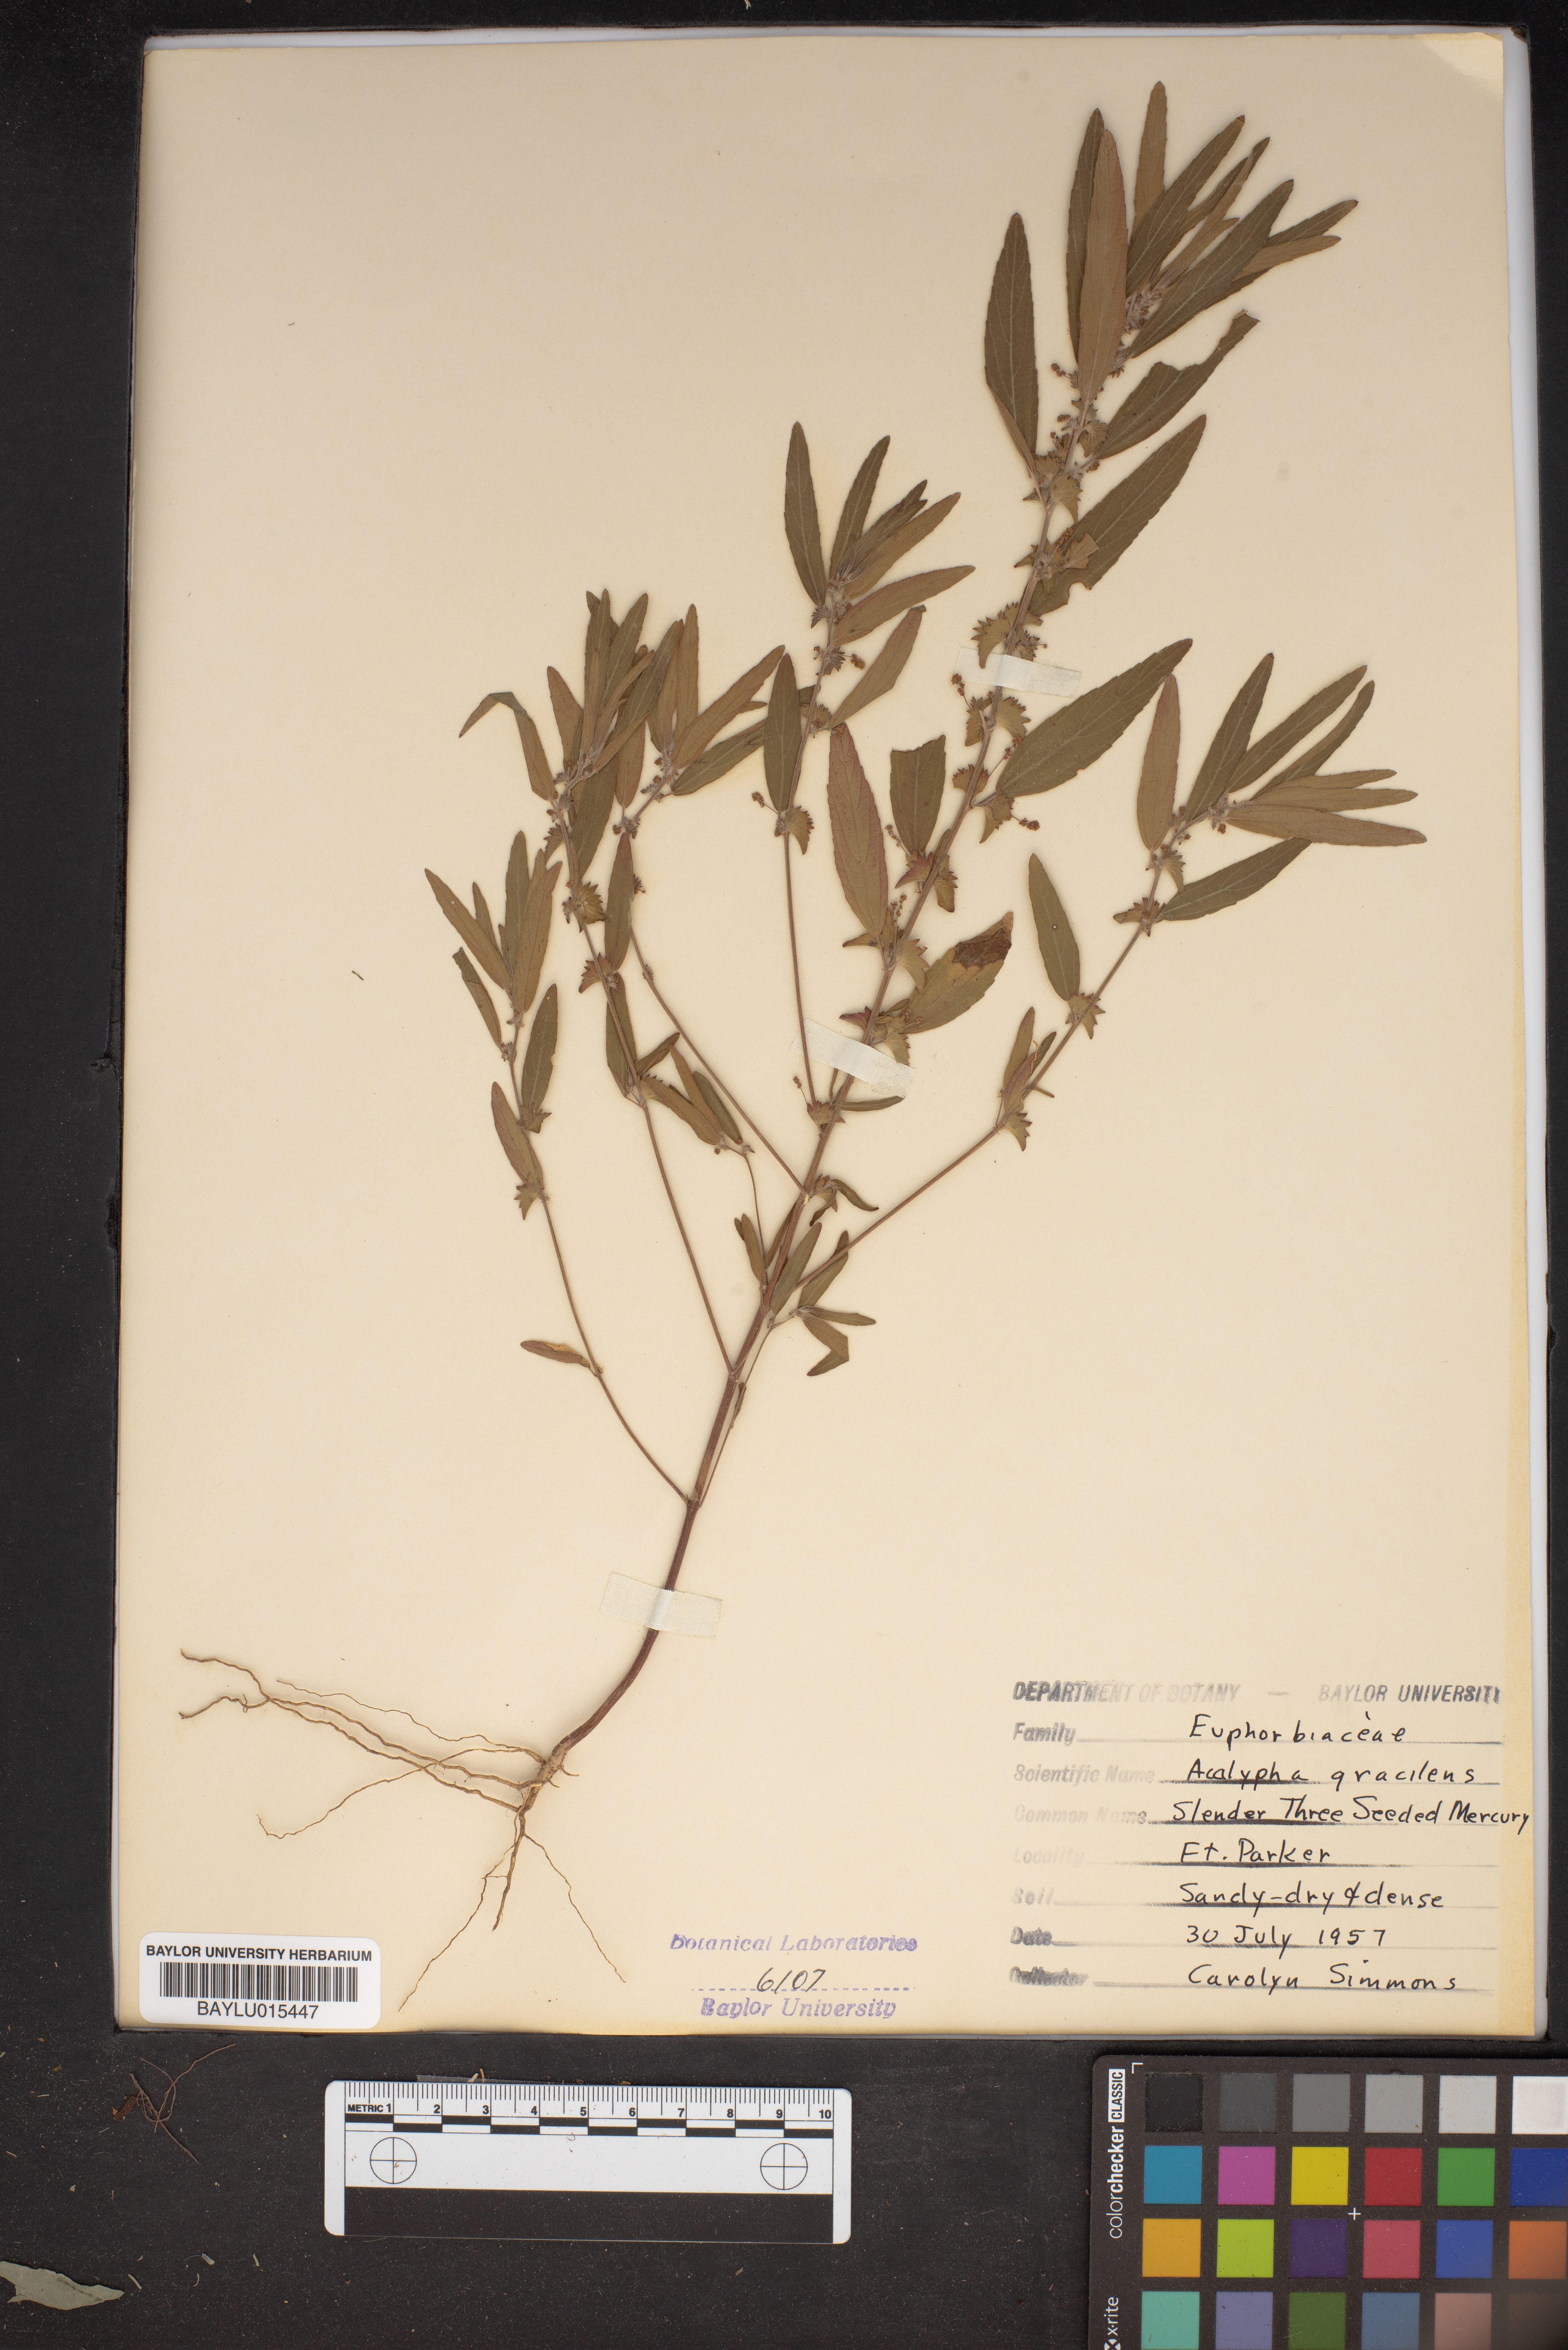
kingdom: Plantae
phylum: Tracheophyta
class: Magnoliopsida
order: Malpighiales
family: Euphorbiaceae
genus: Acalypha
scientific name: Acalypha gracilens
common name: Slender three-seeded mercury
